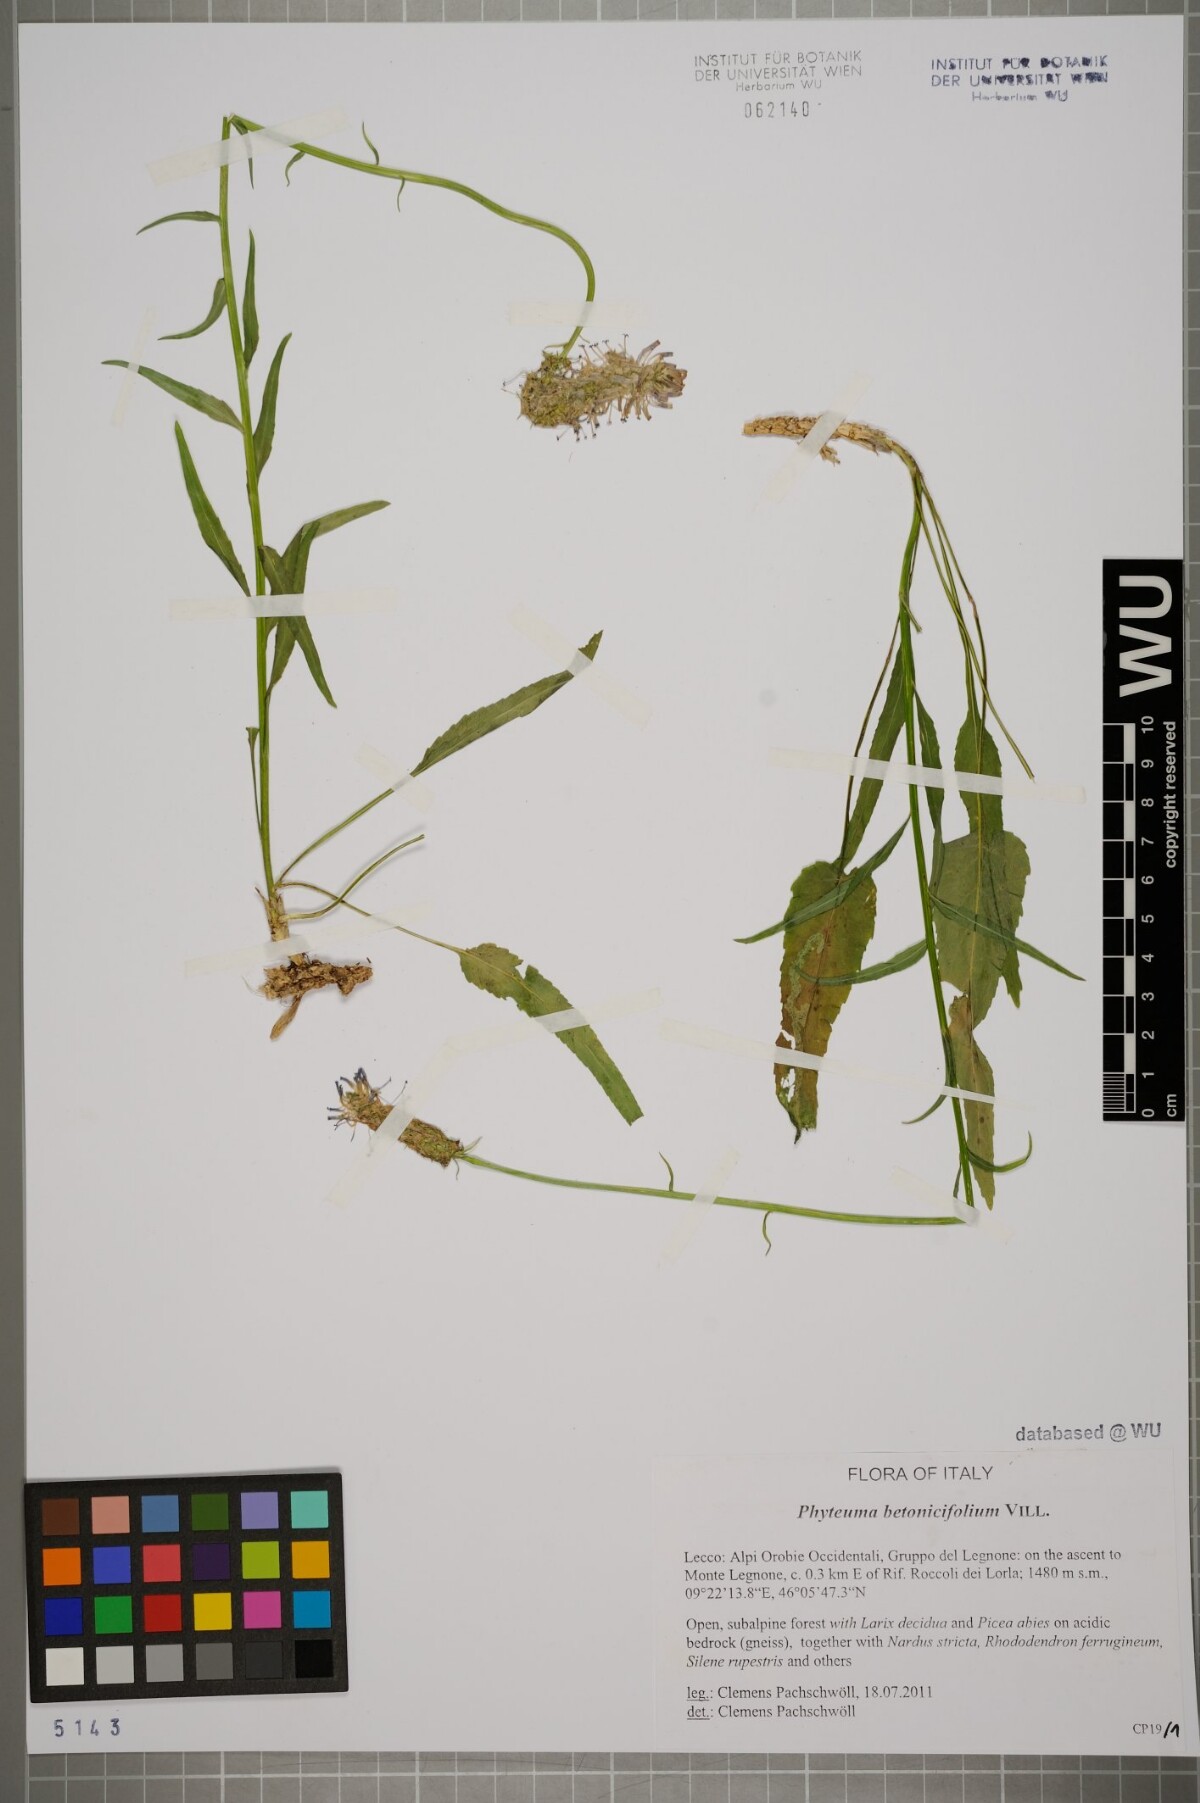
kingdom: Plantae
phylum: Tracheophyta
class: Magnoliopsida
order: Asterales
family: Campanulaceae
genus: Phyteuma
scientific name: Phyteuma betonicifolium
